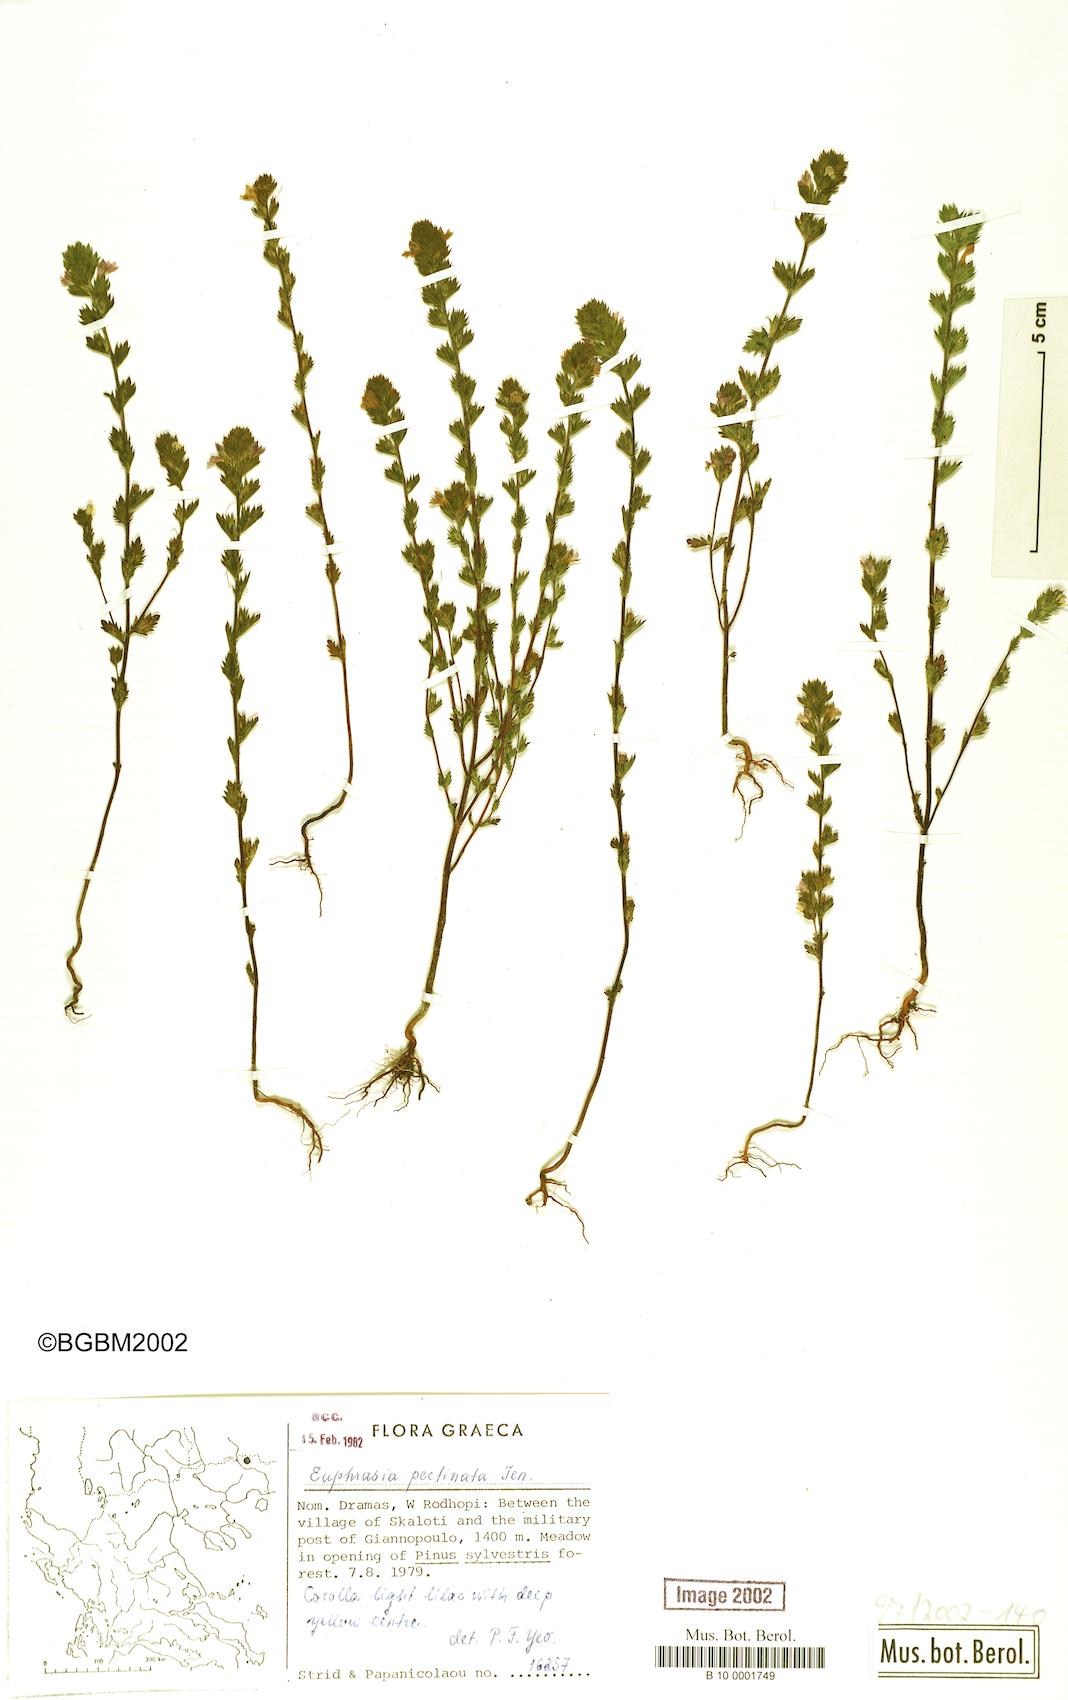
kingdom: Plantae
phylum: Tracheophyta
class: Magnoliopsida
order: Lamiales
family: Orobanchaceae
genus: Euphrasia
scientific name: Euphrasia pectinata
